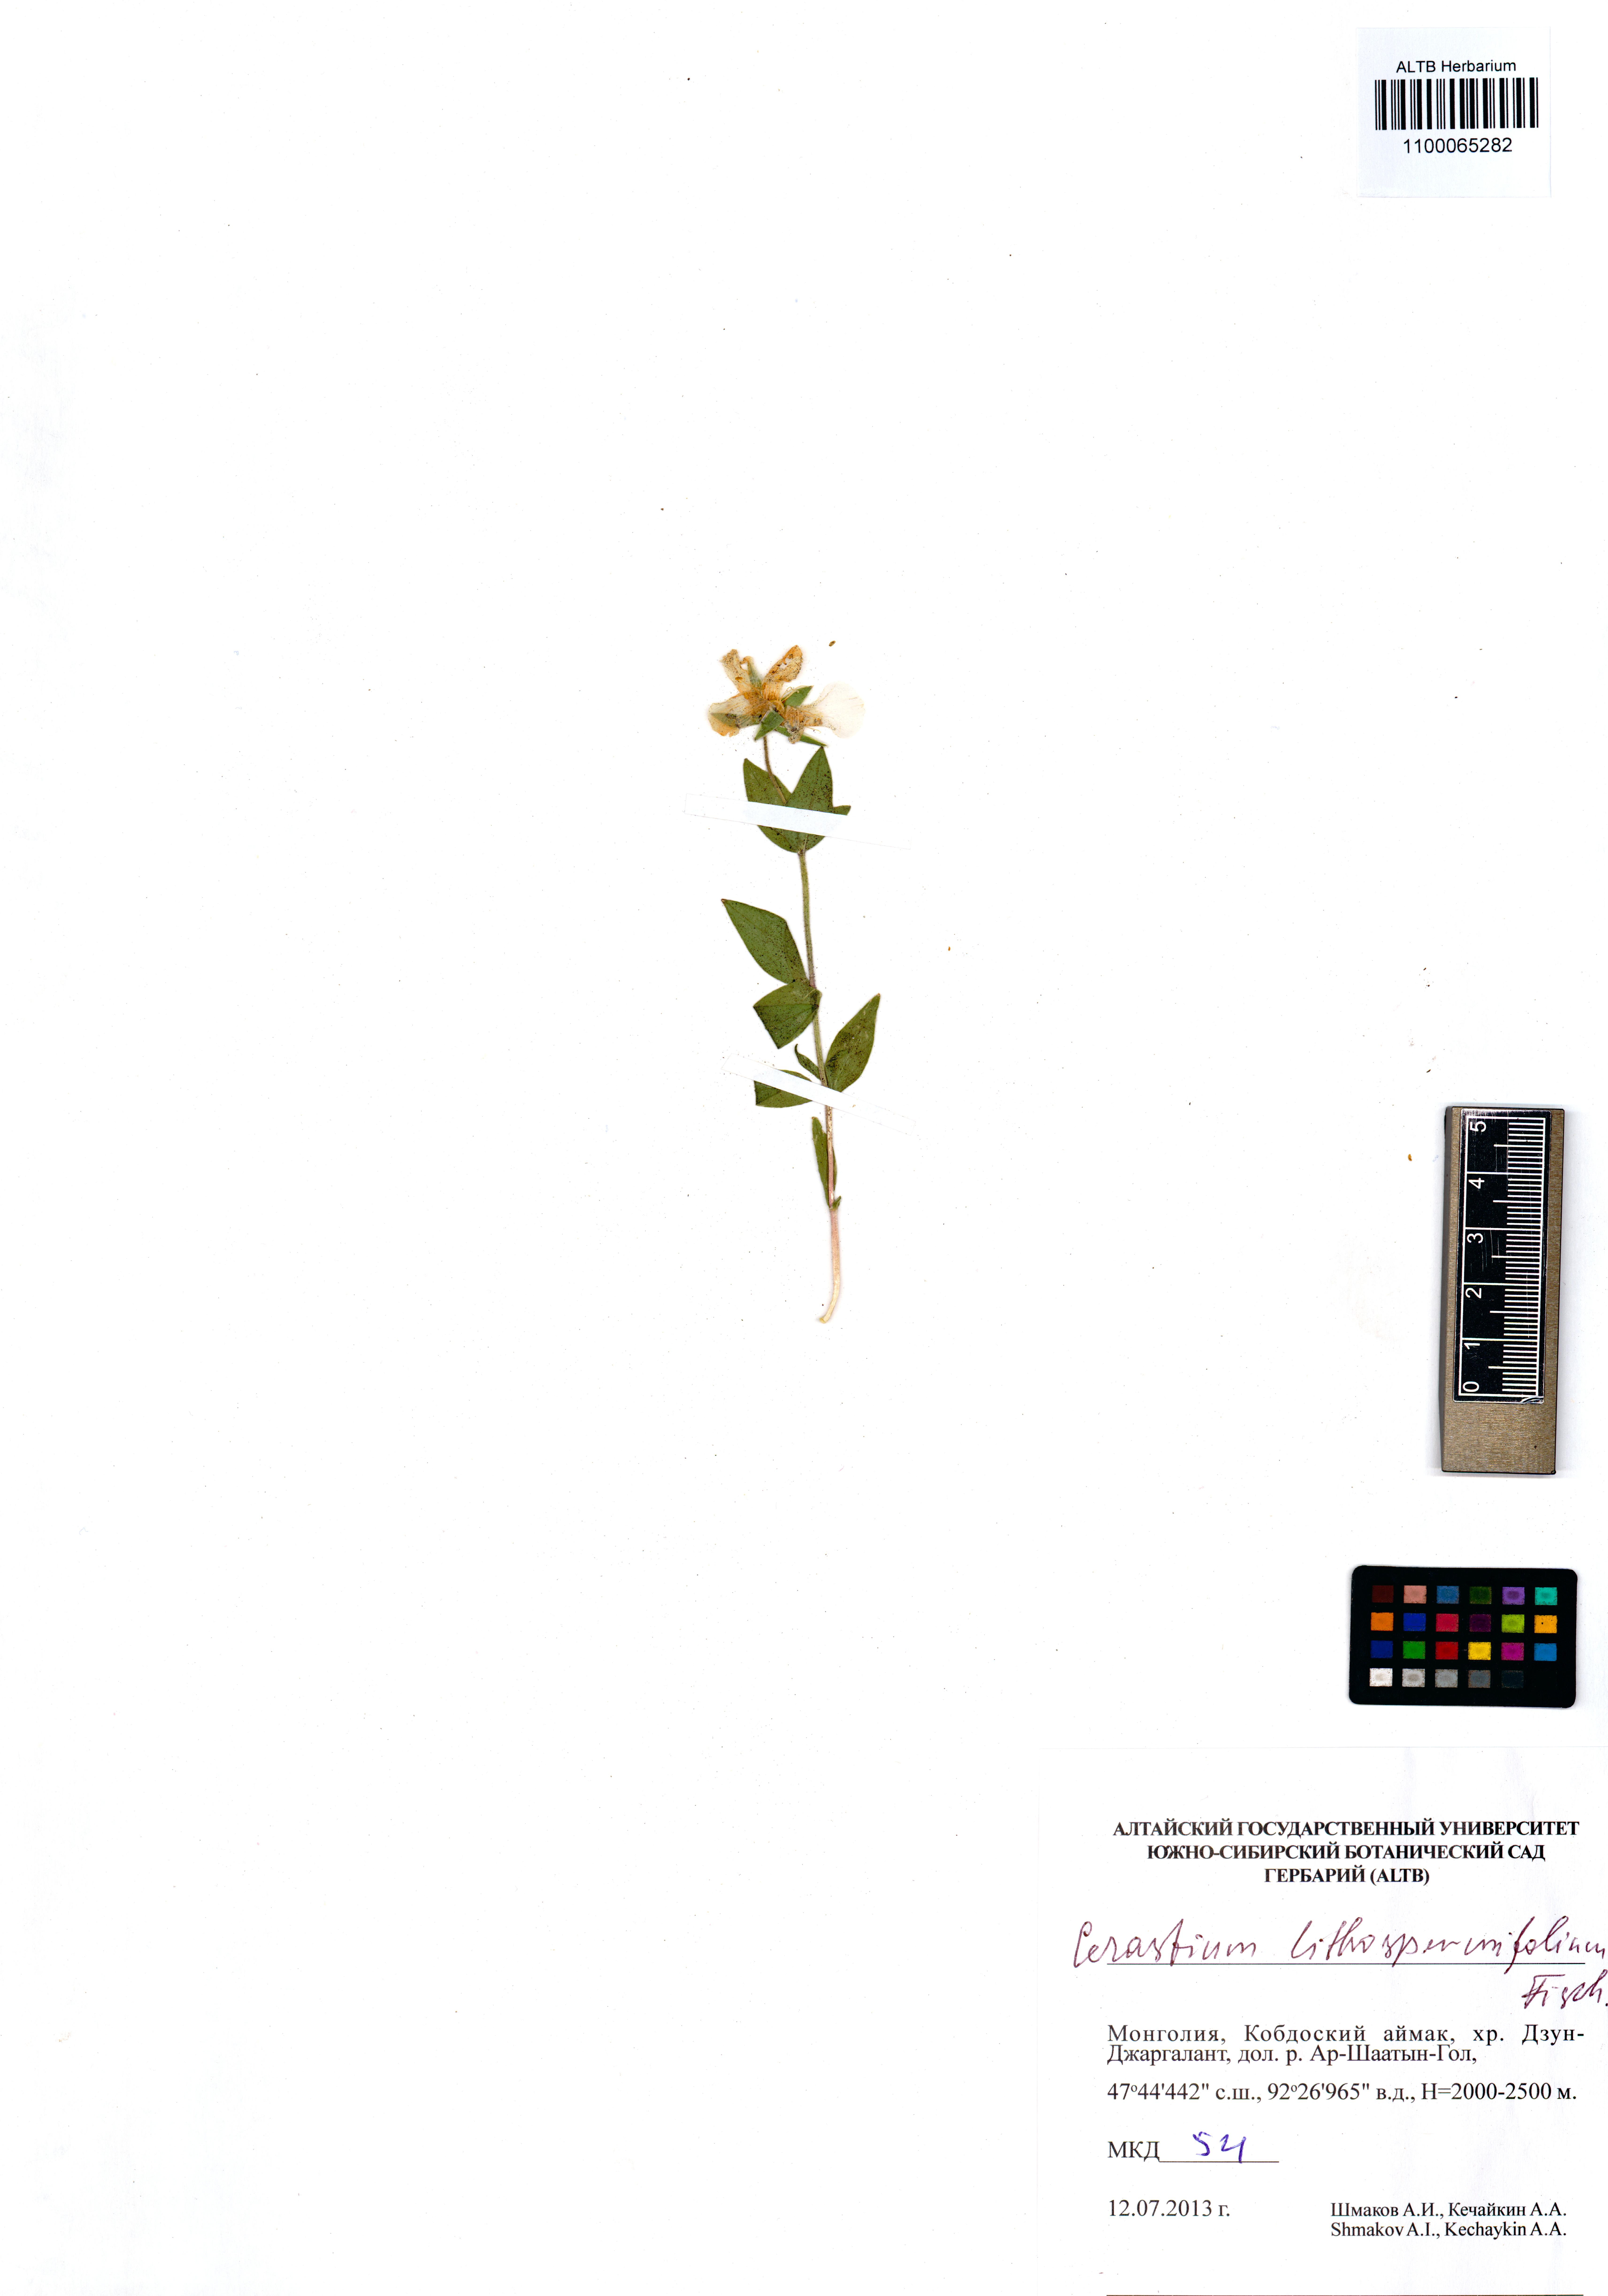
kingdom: Plantae
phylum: Tracheophyta
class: Magnoliopsida
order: Caryophyllales
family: Caryophyllaceae
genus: Cerastium
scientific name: Cerastium lithospermifolium
